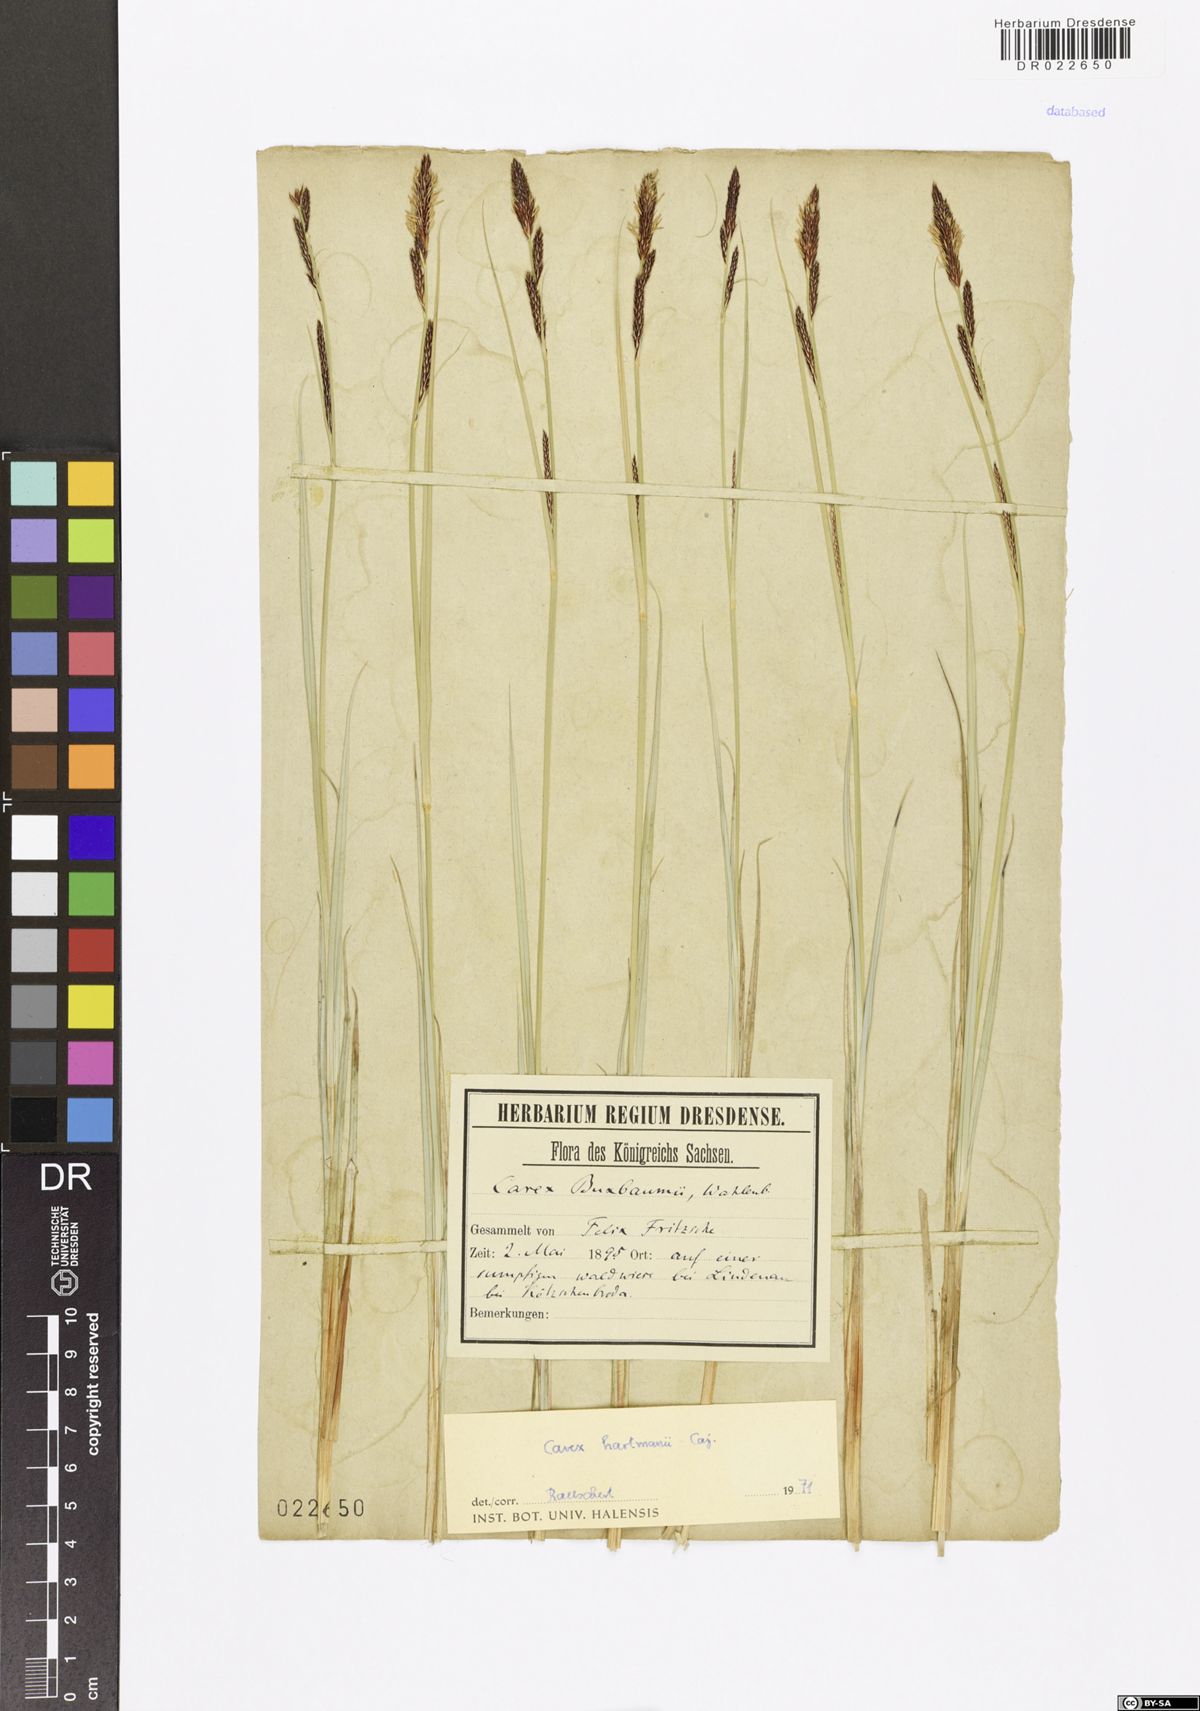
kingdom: Plantae
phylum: Tracheophyta
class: Liliopsida
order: Poales
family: Cyperaceae
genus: Carex
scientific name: Carex hartmaniorum
